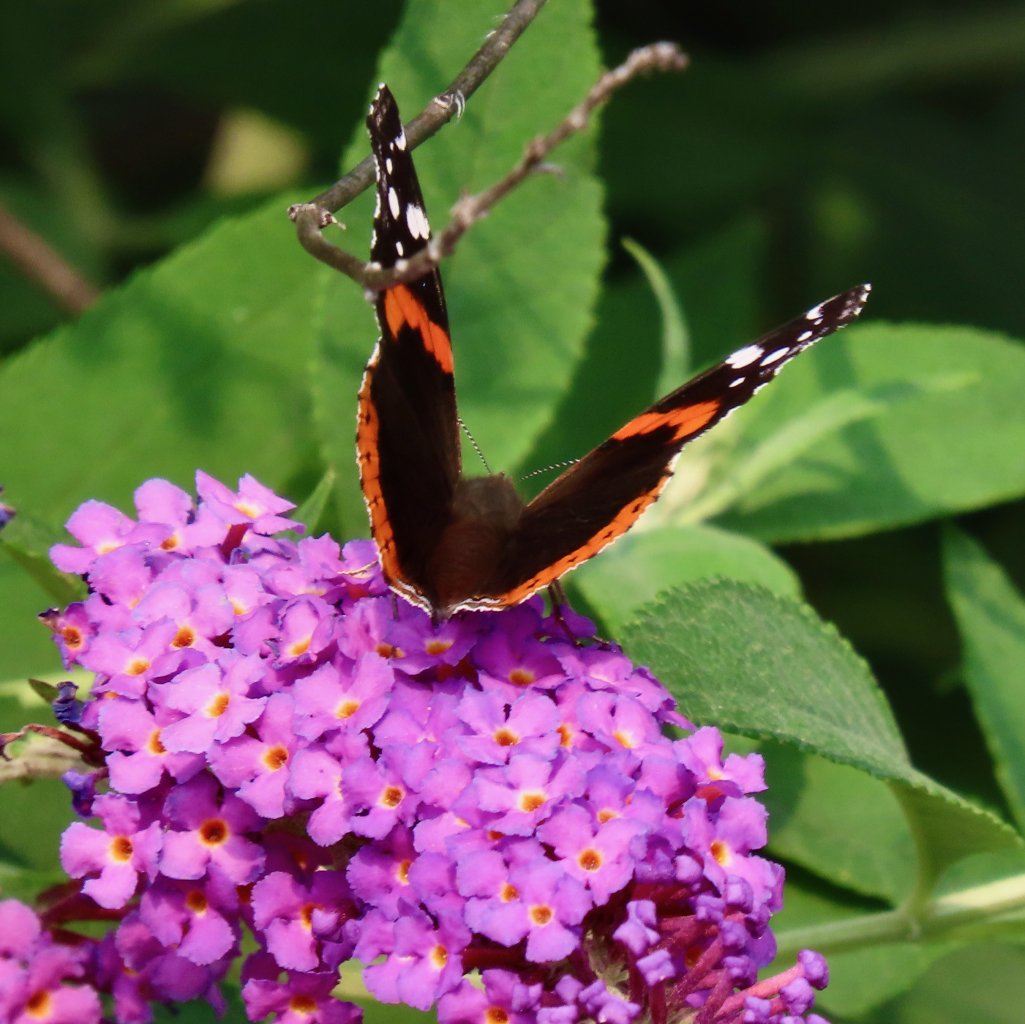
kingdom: Animalia
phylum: Arthropoda
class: Insecta
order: Lepidoptera
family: Nymphalidae
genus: Vanessa
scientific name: Vanessa atalanta
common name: Red Admiral
